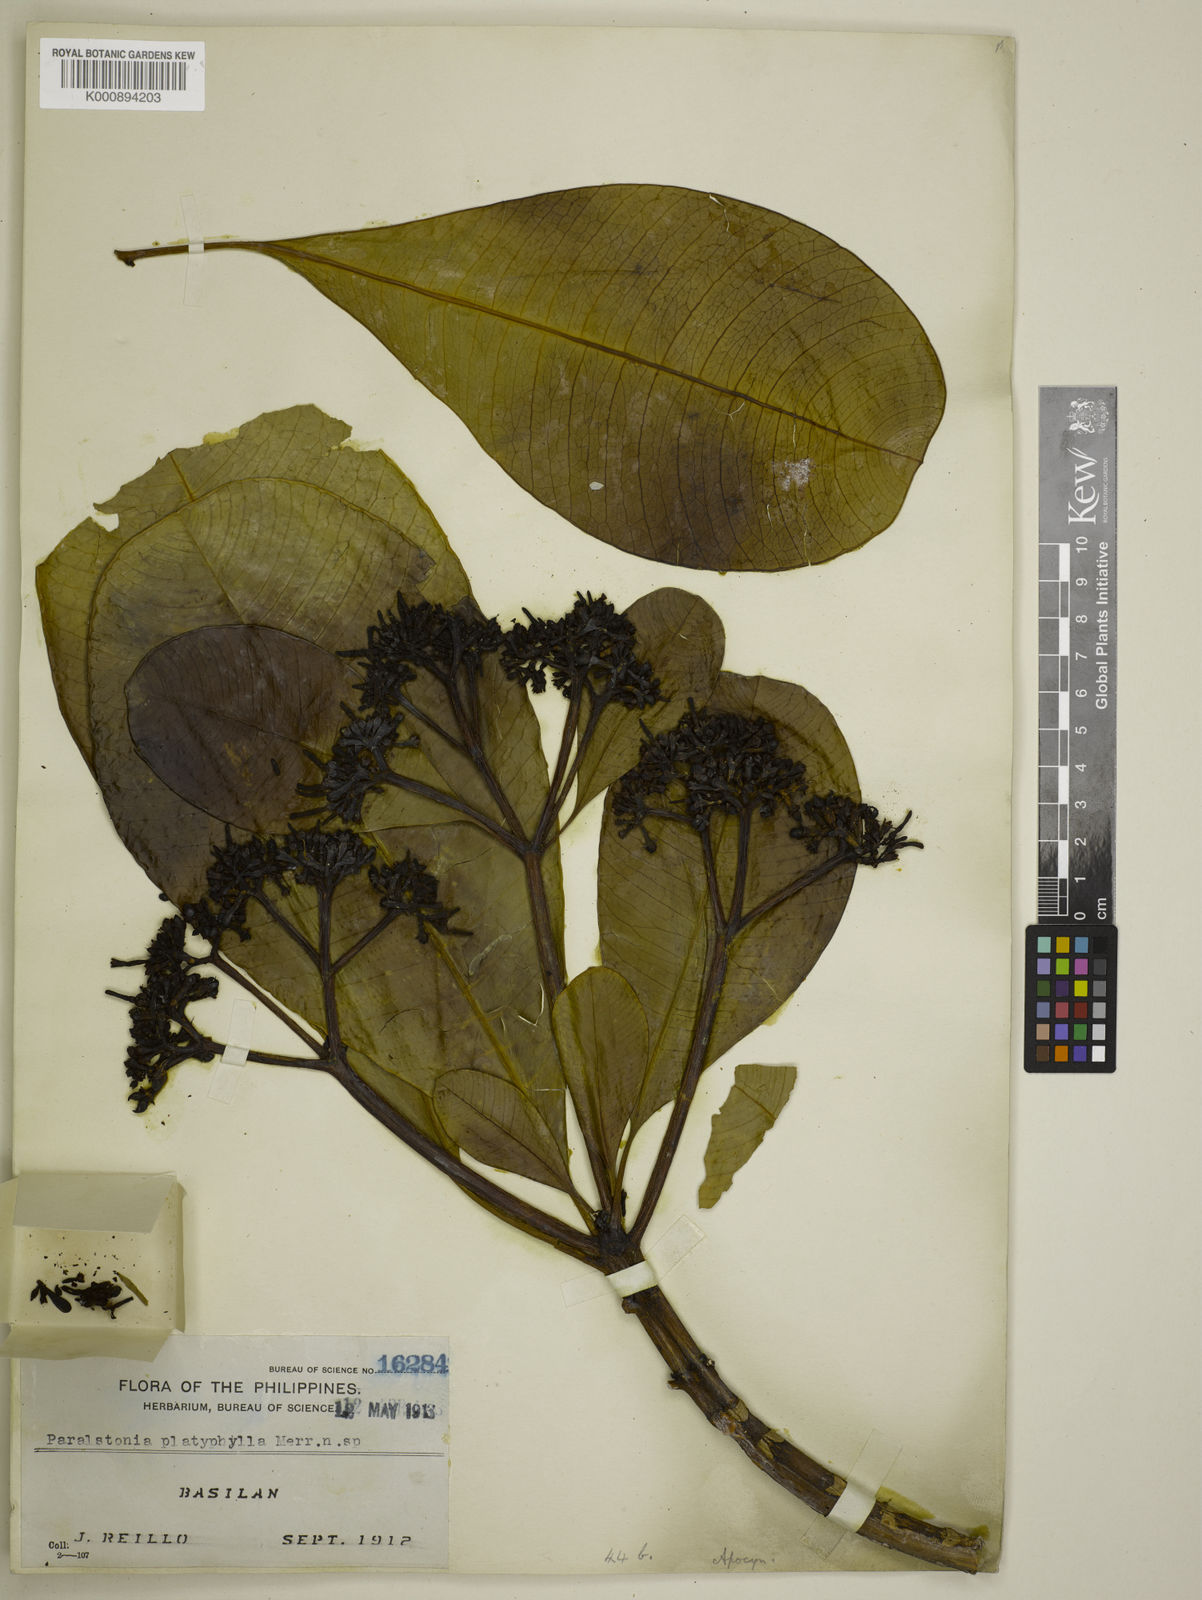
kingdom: Plantae
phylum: Tracheophyta
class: Magnoliopsida
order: Gentianales
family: Apocynaceae
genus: Ochrosia
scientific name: Ochrosia oppositifolia
